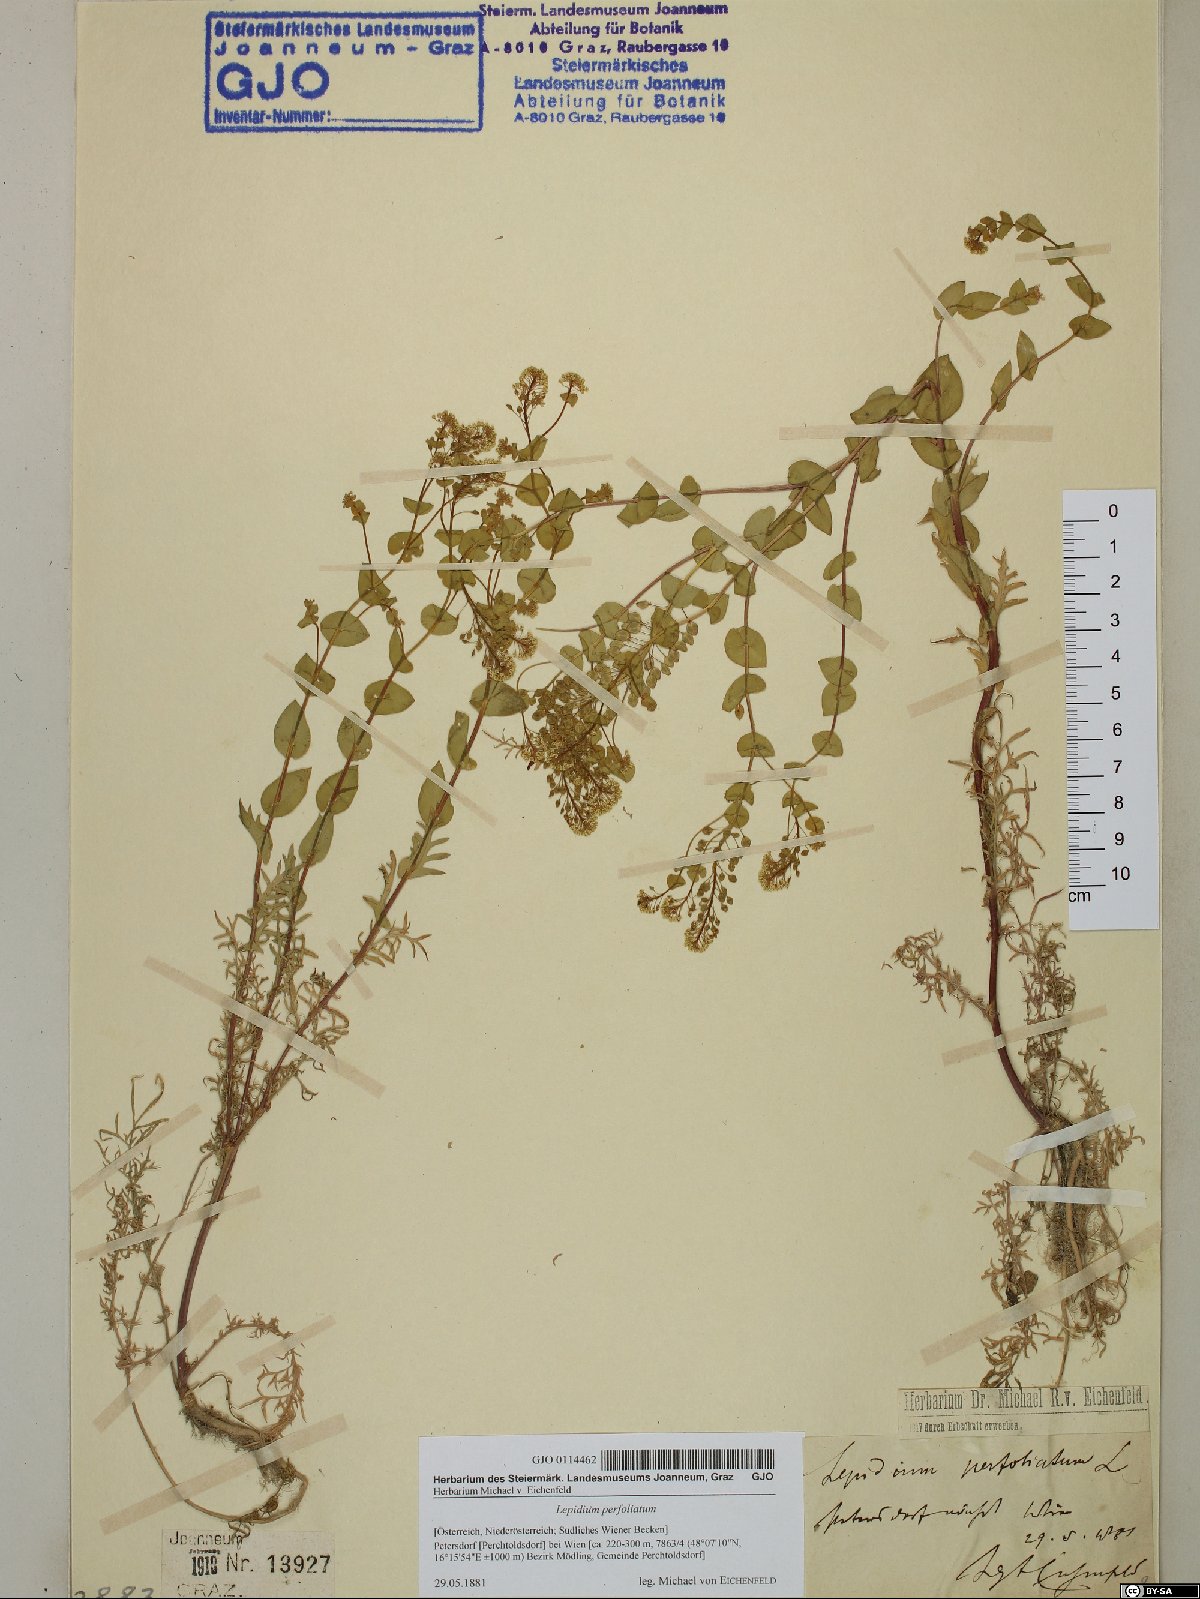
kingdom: Plantae
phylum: Tracheophyta
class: Magnoliopsida
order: Brassicales
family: Brassicaceae
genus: Lepidium
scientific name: Lepidium perfoliatum
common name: Perfoliate pepperwort
